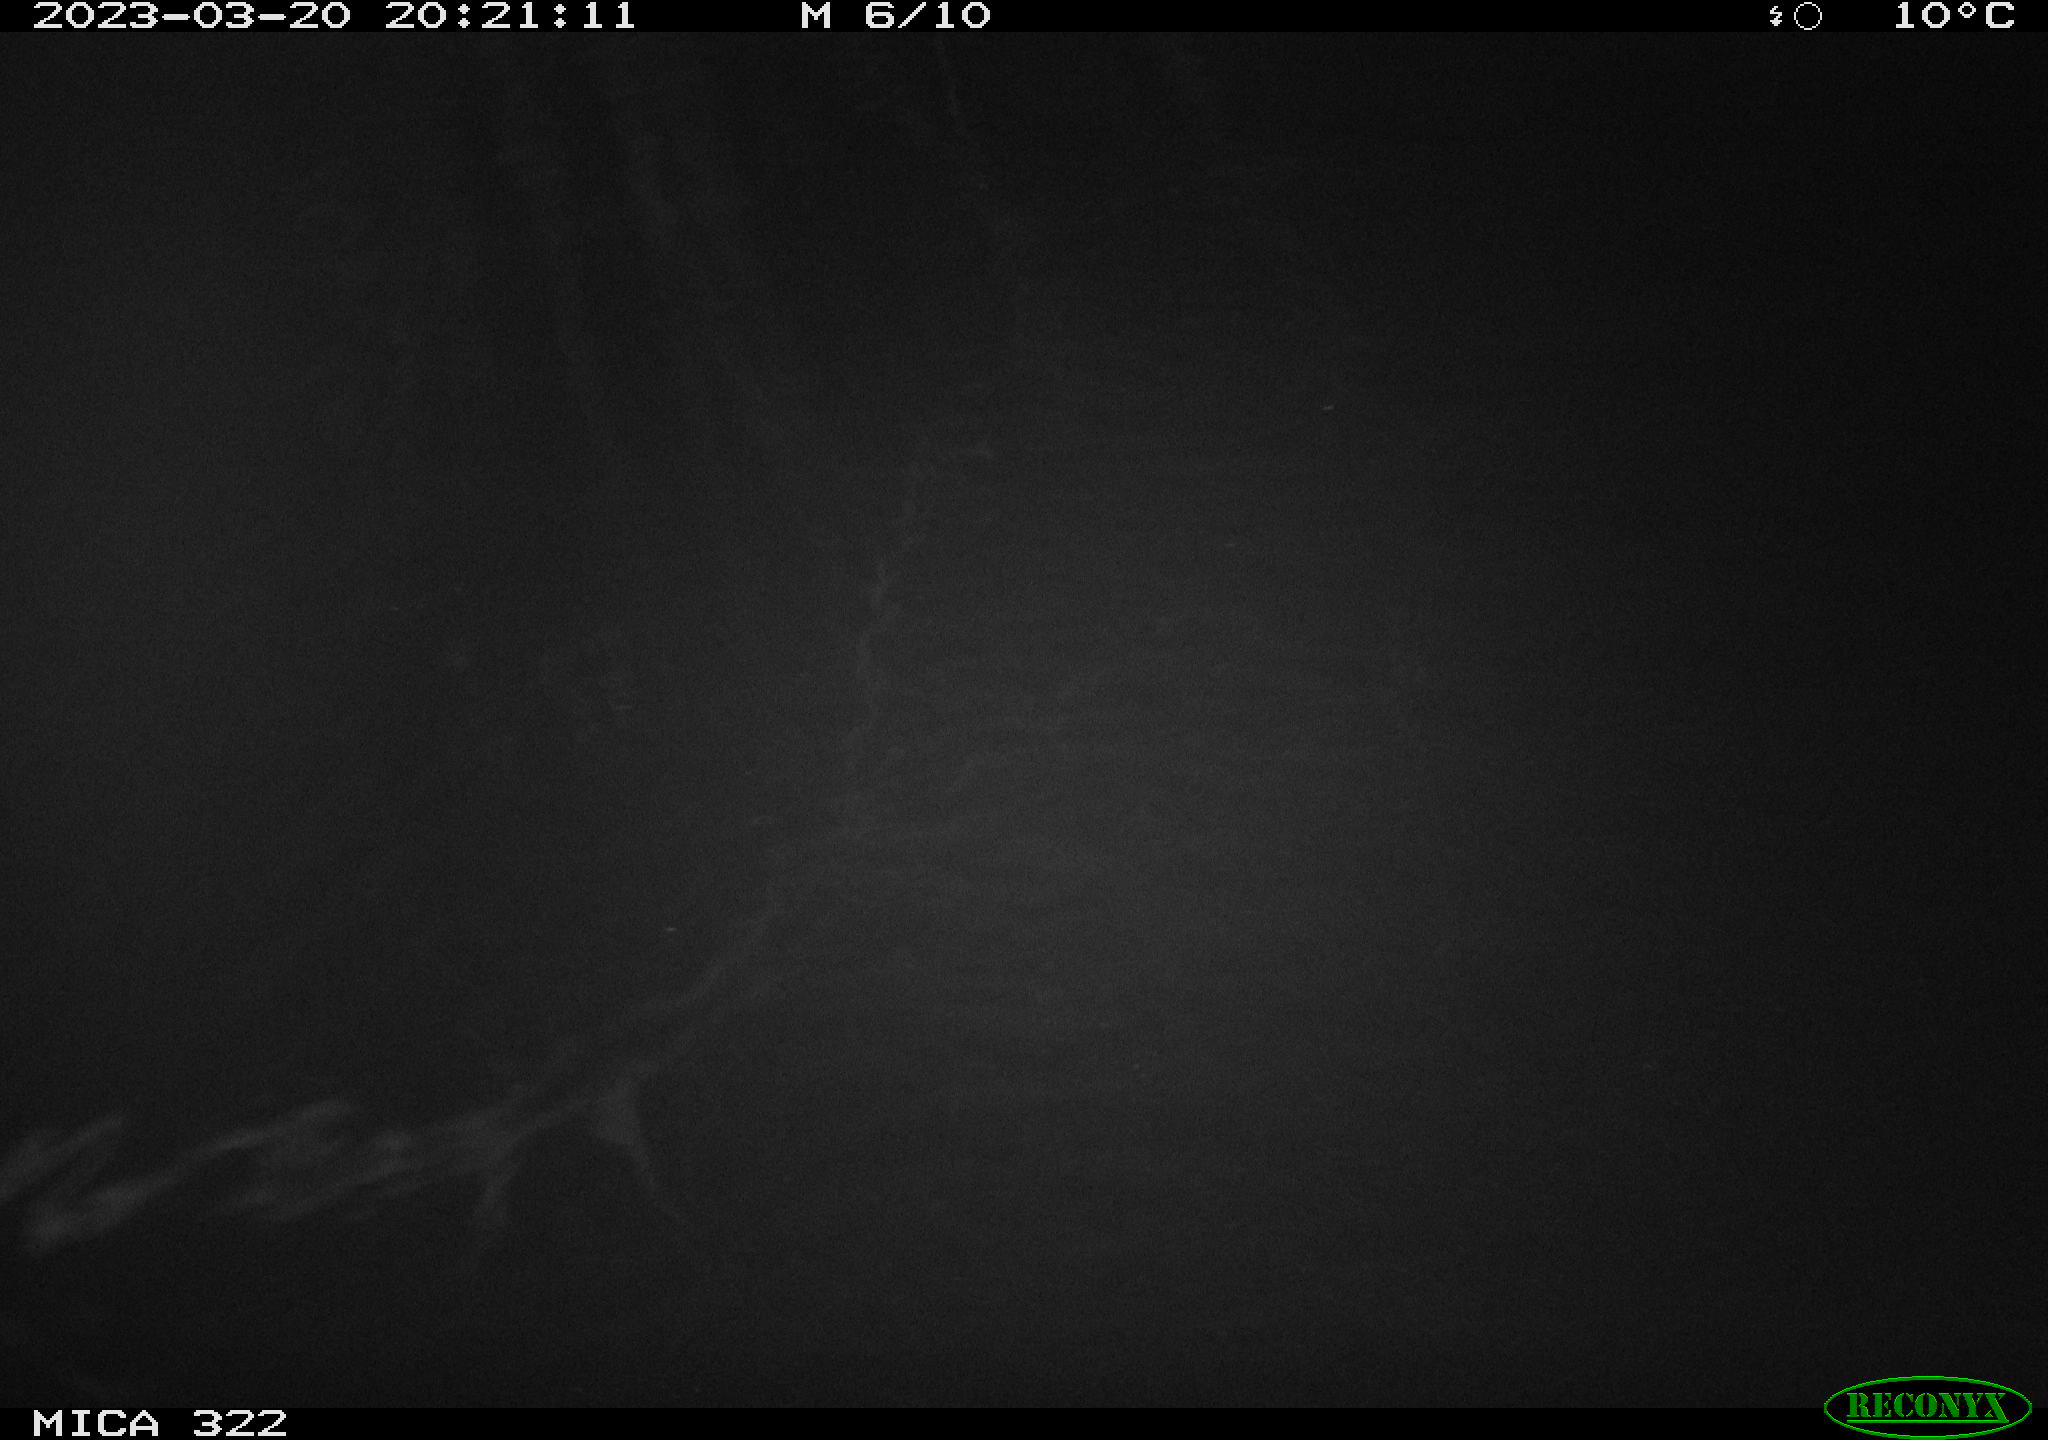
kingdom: Animalia
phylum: Chordata
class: Mammalia
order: Rodentia
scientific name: Rodentia
